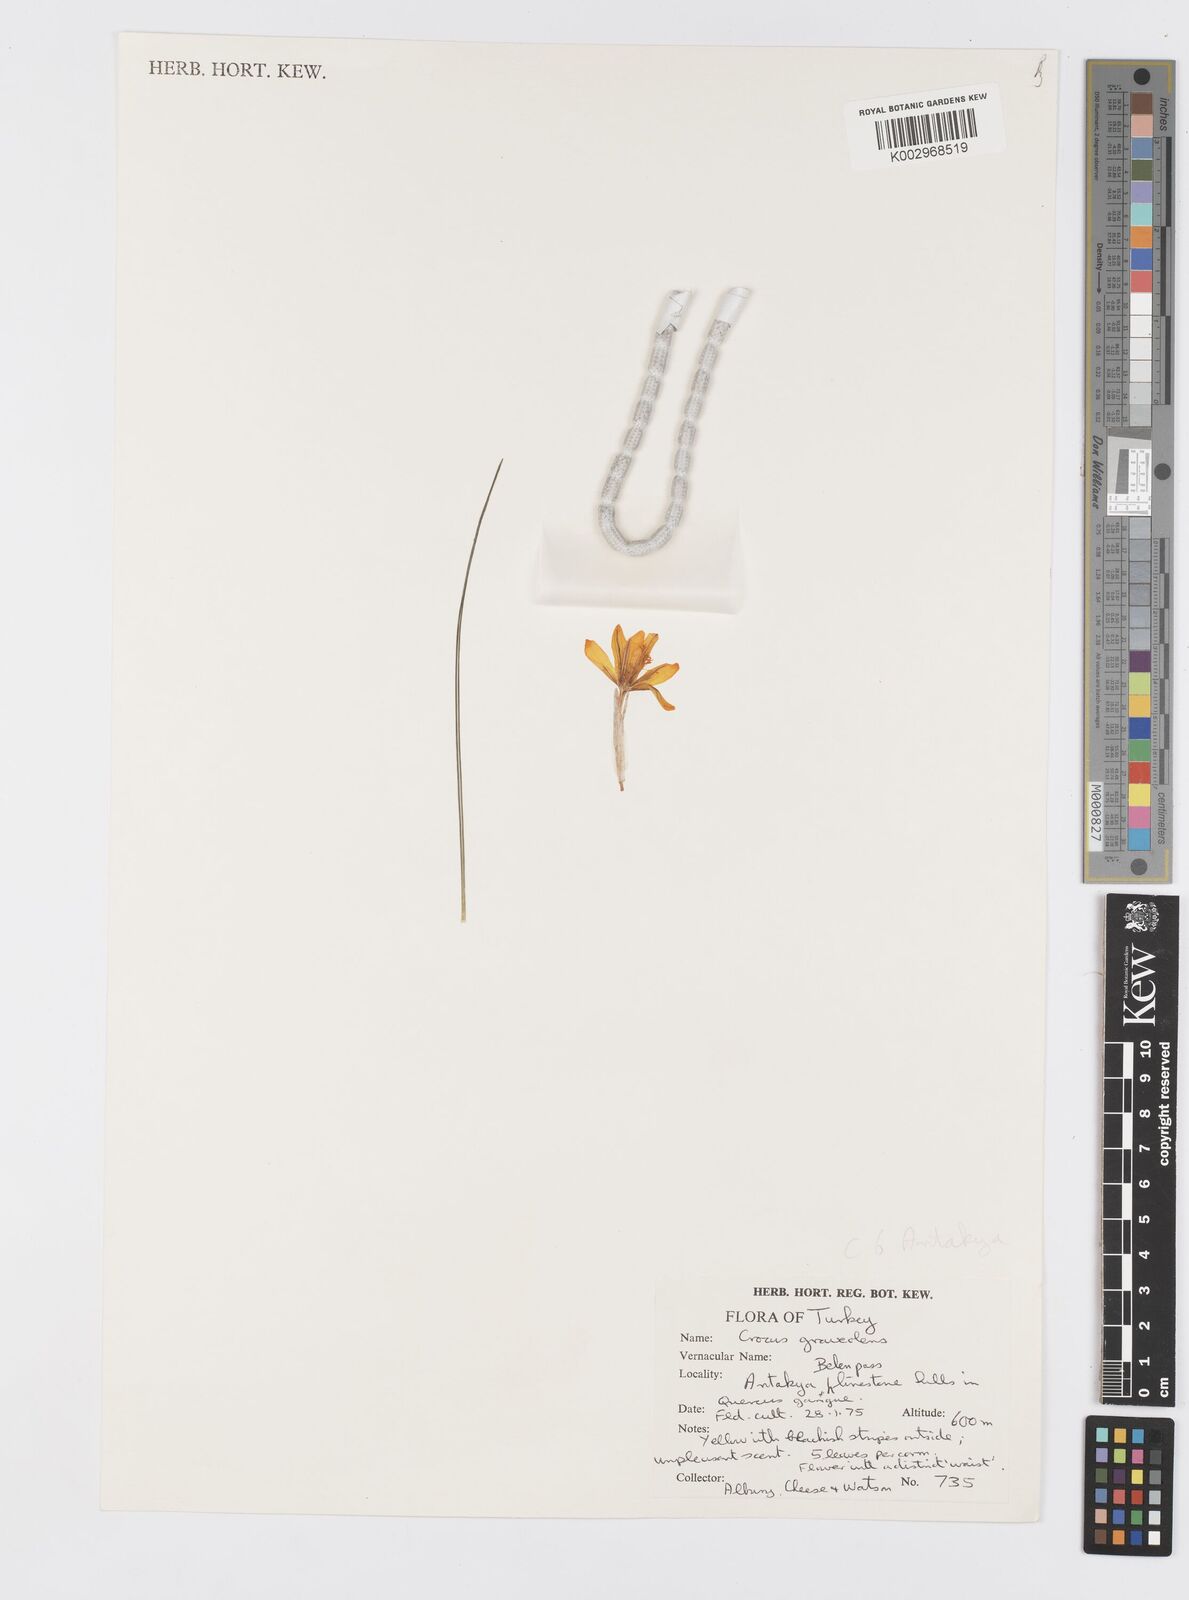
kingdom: Plantae
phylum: Tracheophyta
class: Liliopsida
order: Asparagales
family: Iridaceae
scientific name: Iridaceae
